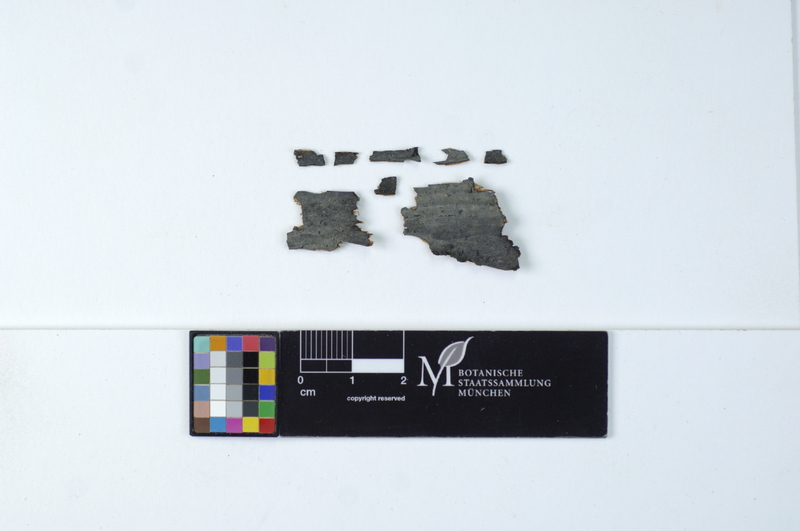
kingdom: Fungi
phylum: Basidiomycota
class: Agaricomycetes
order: Russulales
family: Stereaceae
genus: Acanthophysellum
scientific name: Acanthophysellum lividocoeruleum
